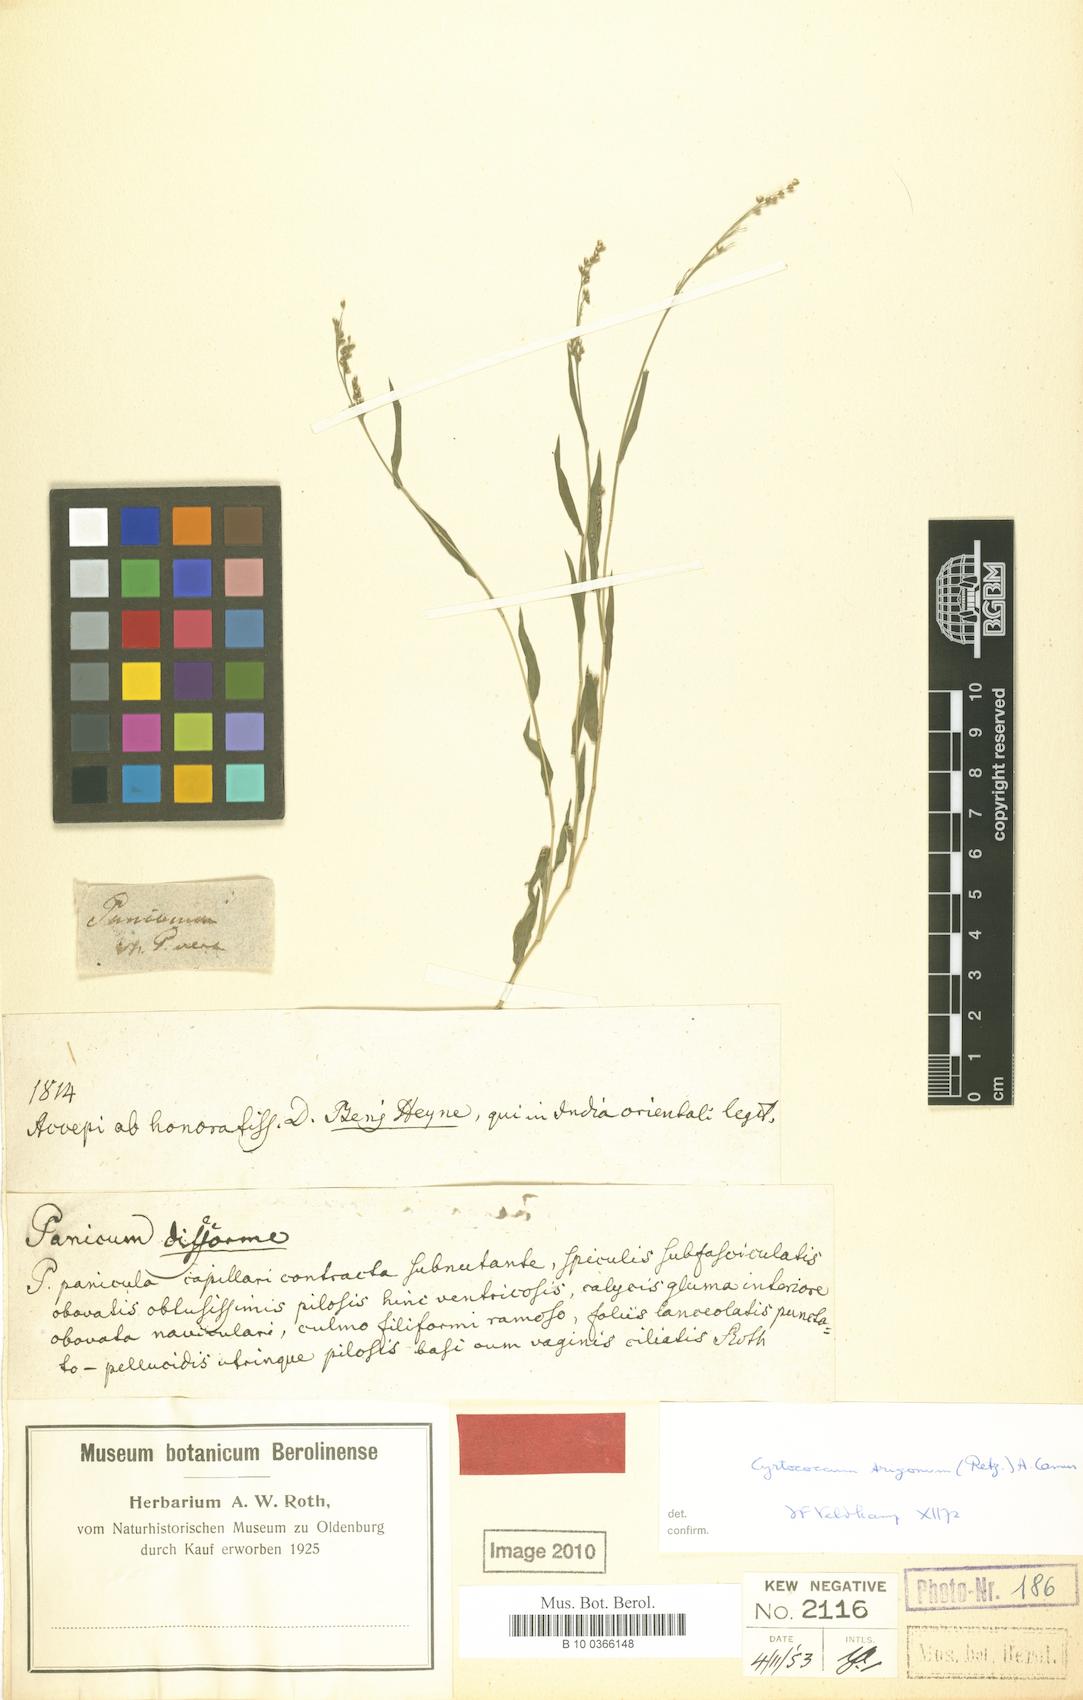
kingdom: Plantae
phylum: Tracheophyta
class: Liliopsida
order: Poales
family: Poaceae
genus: Cyrtococcum
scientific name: Cyrtococcum trigonum
